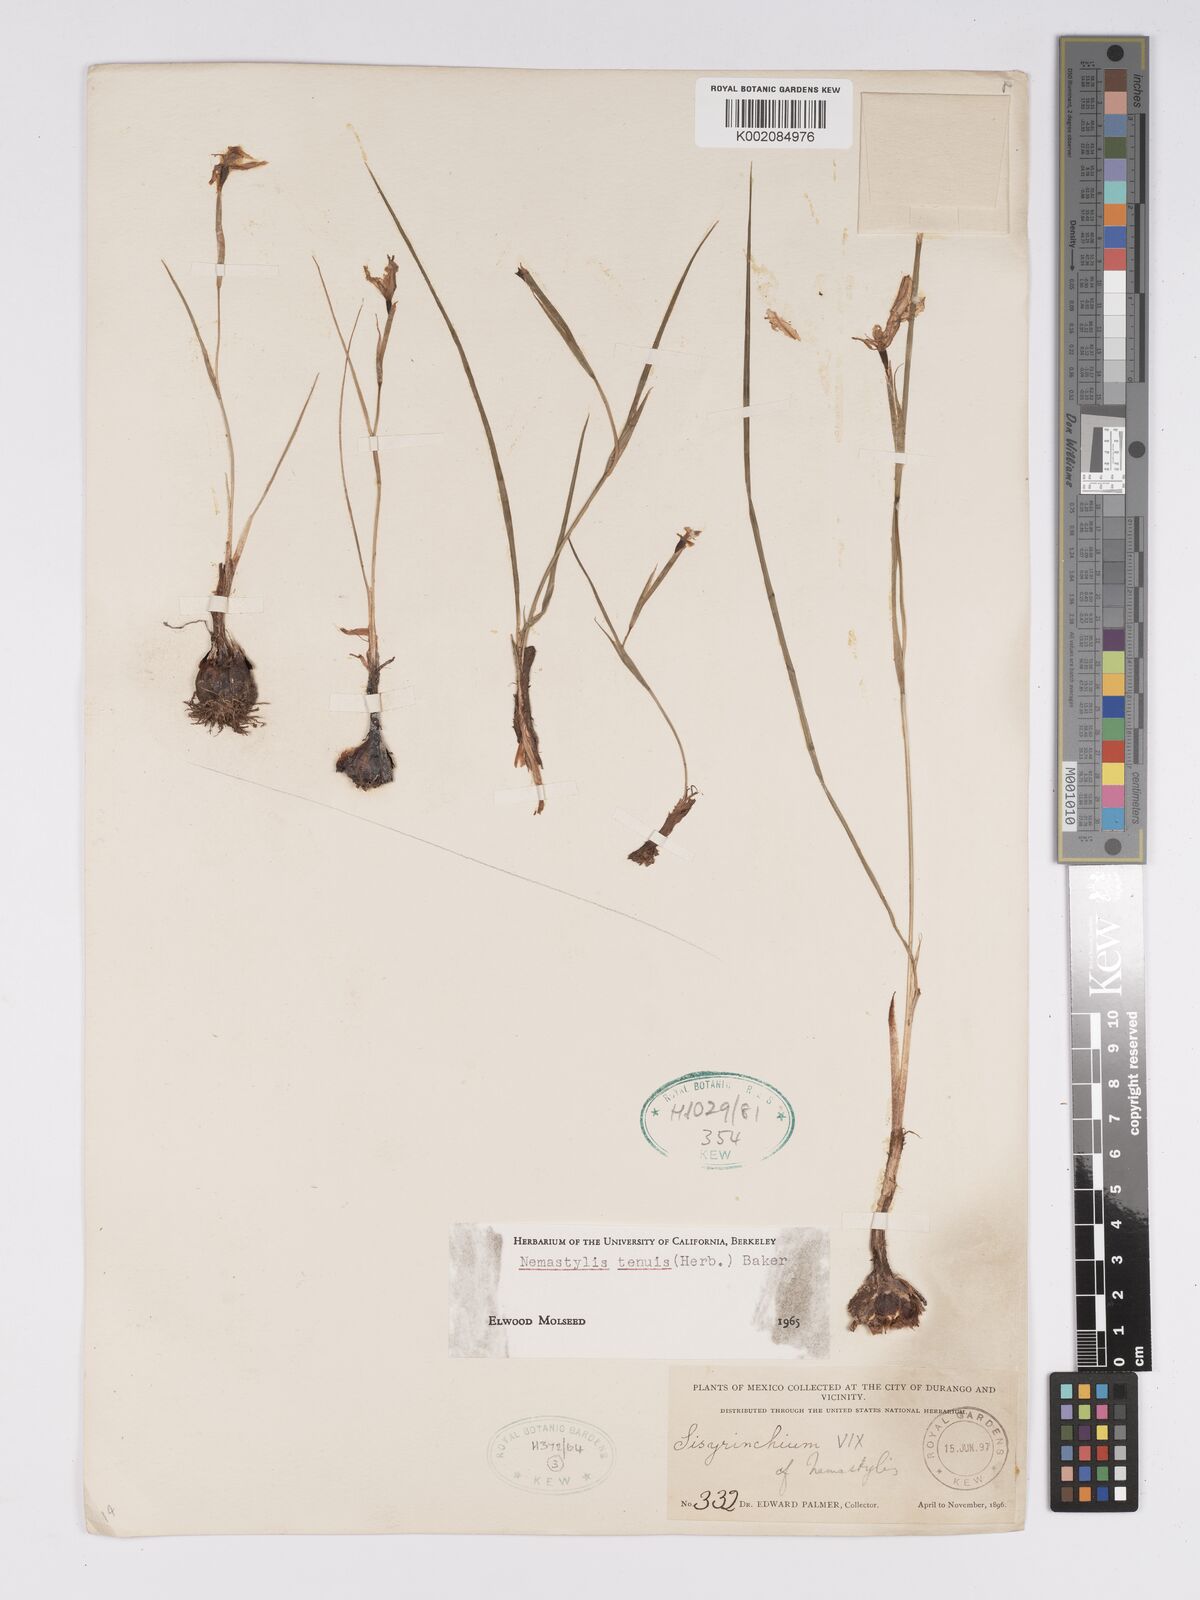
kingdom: Plantae
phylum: Tracheophyta
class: Liliopsida
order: Asparagales
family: Iridaceae
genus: Nemastylis
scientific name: Nemastylis tenuis
